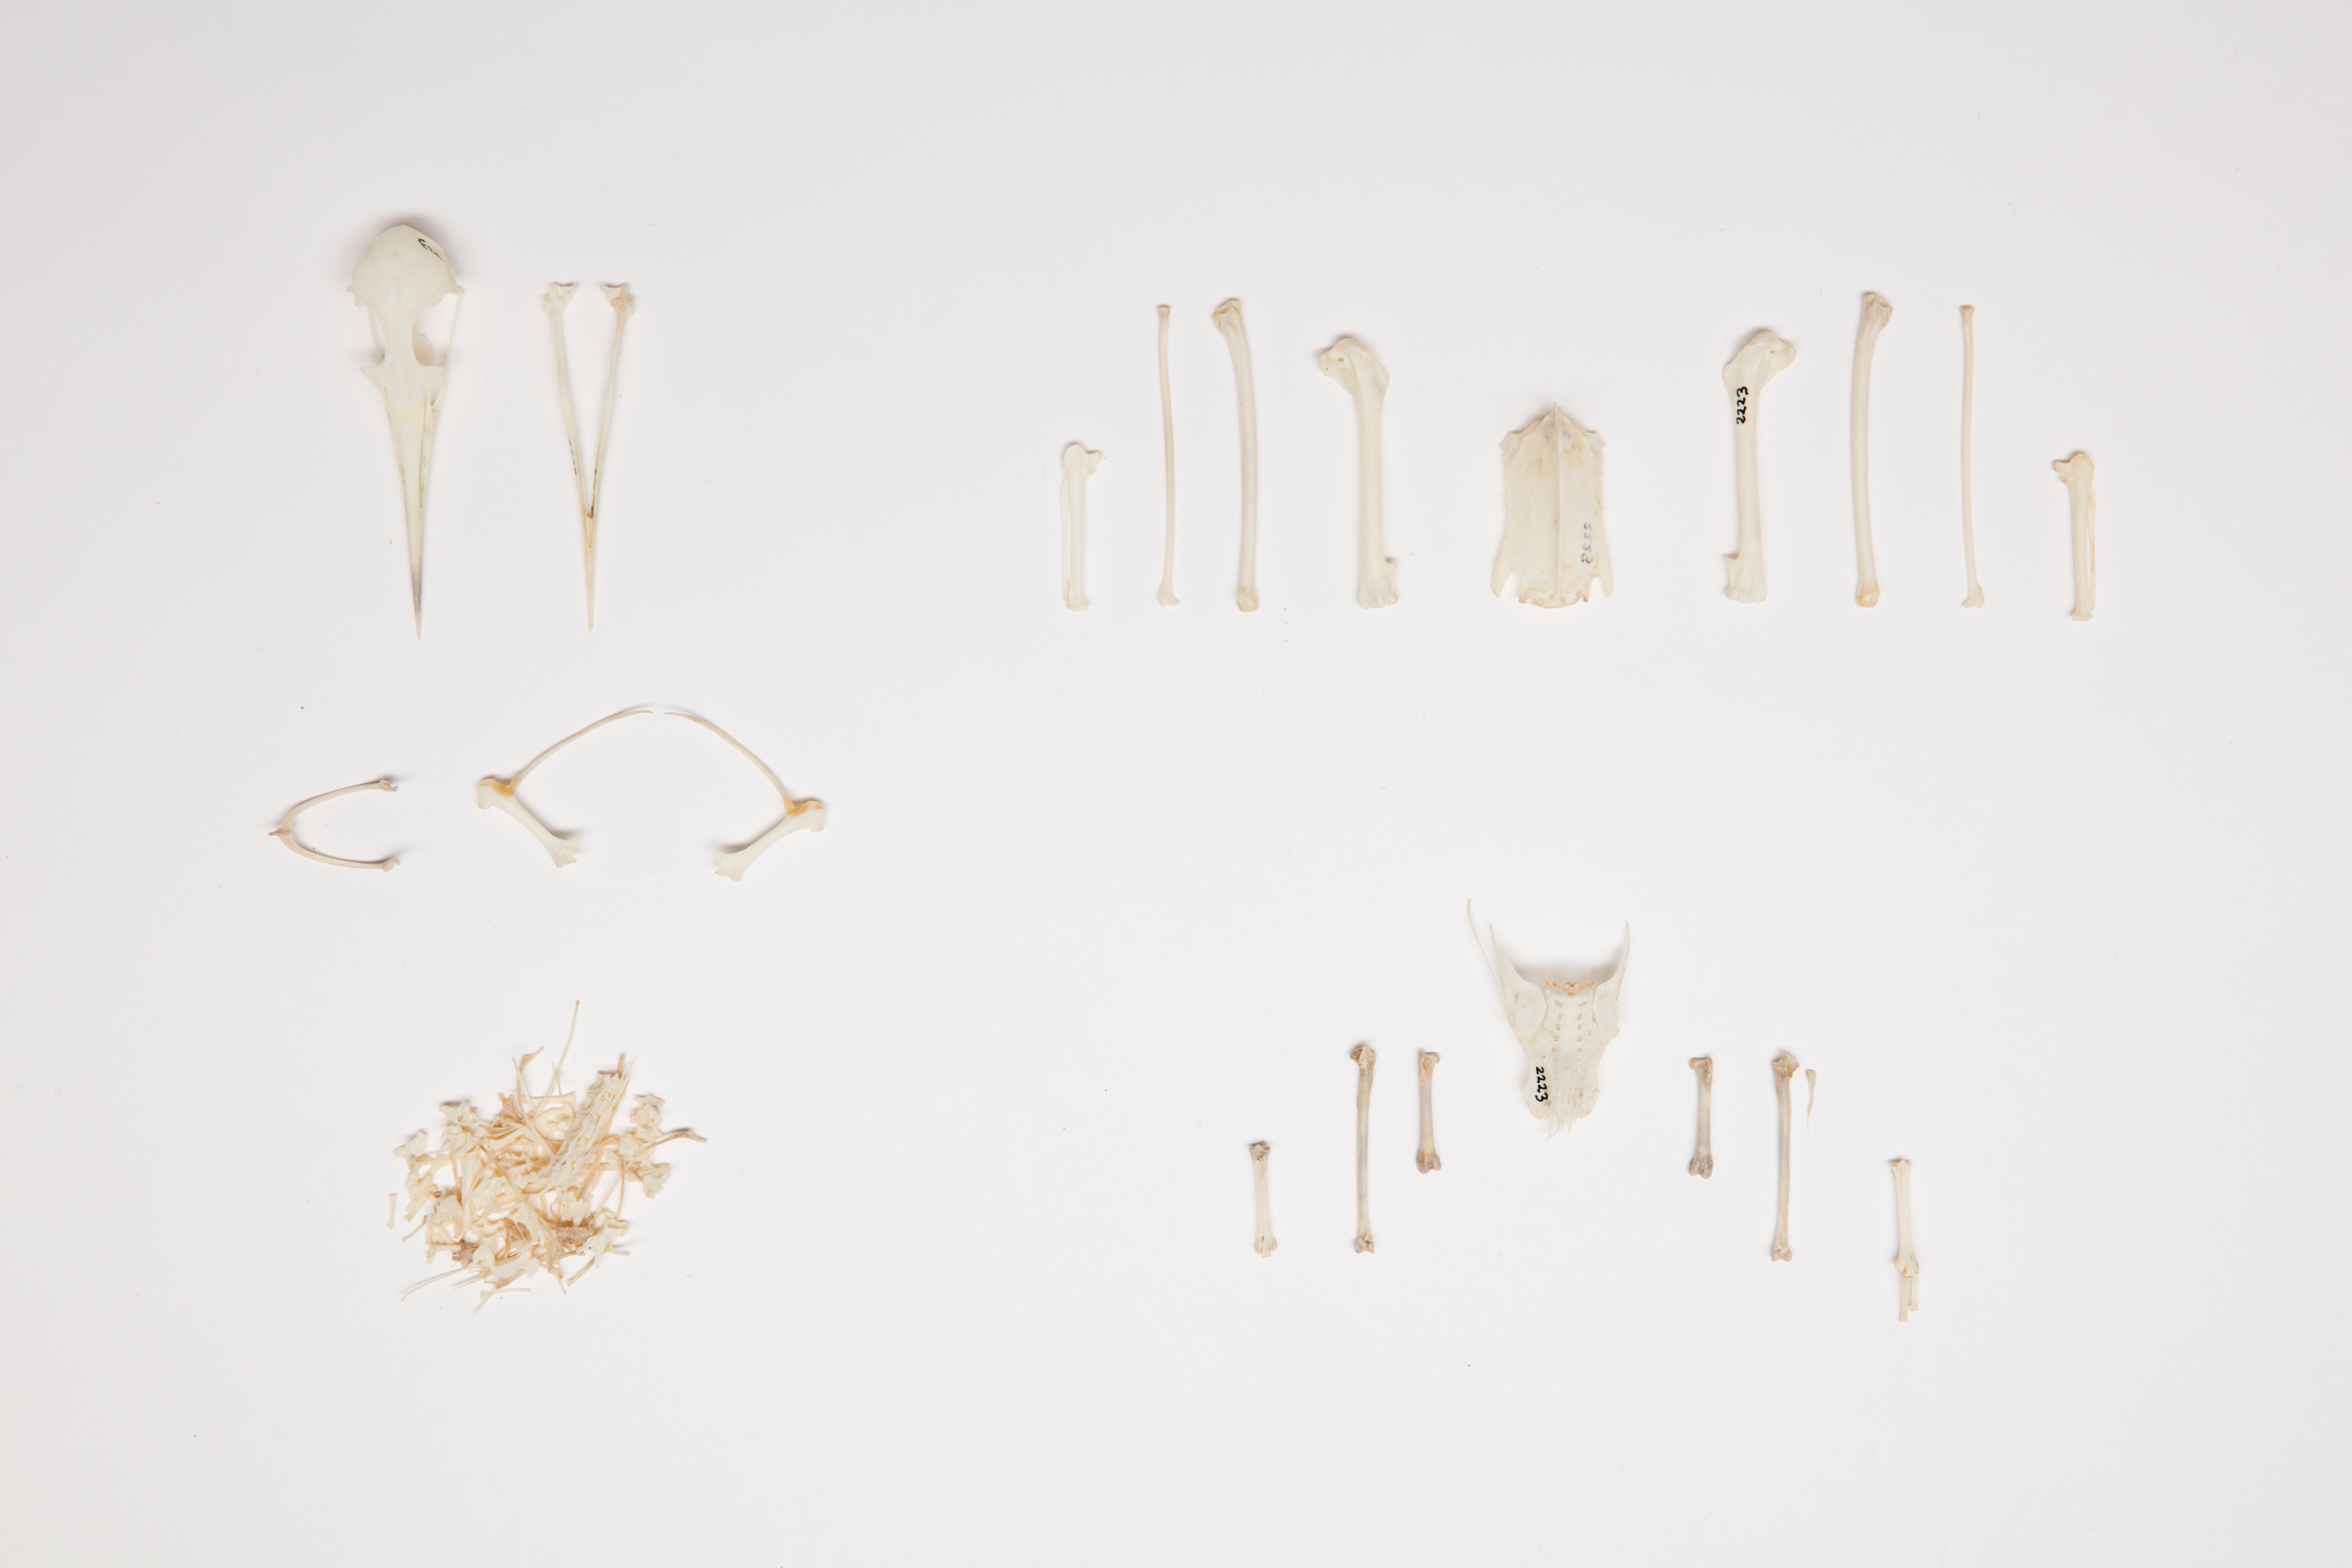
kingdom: Animalia
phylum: Chordata
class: Aves
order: Charadriiformes
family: Laridae
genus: Anous
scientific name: Anous minutus
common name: Black noddy
